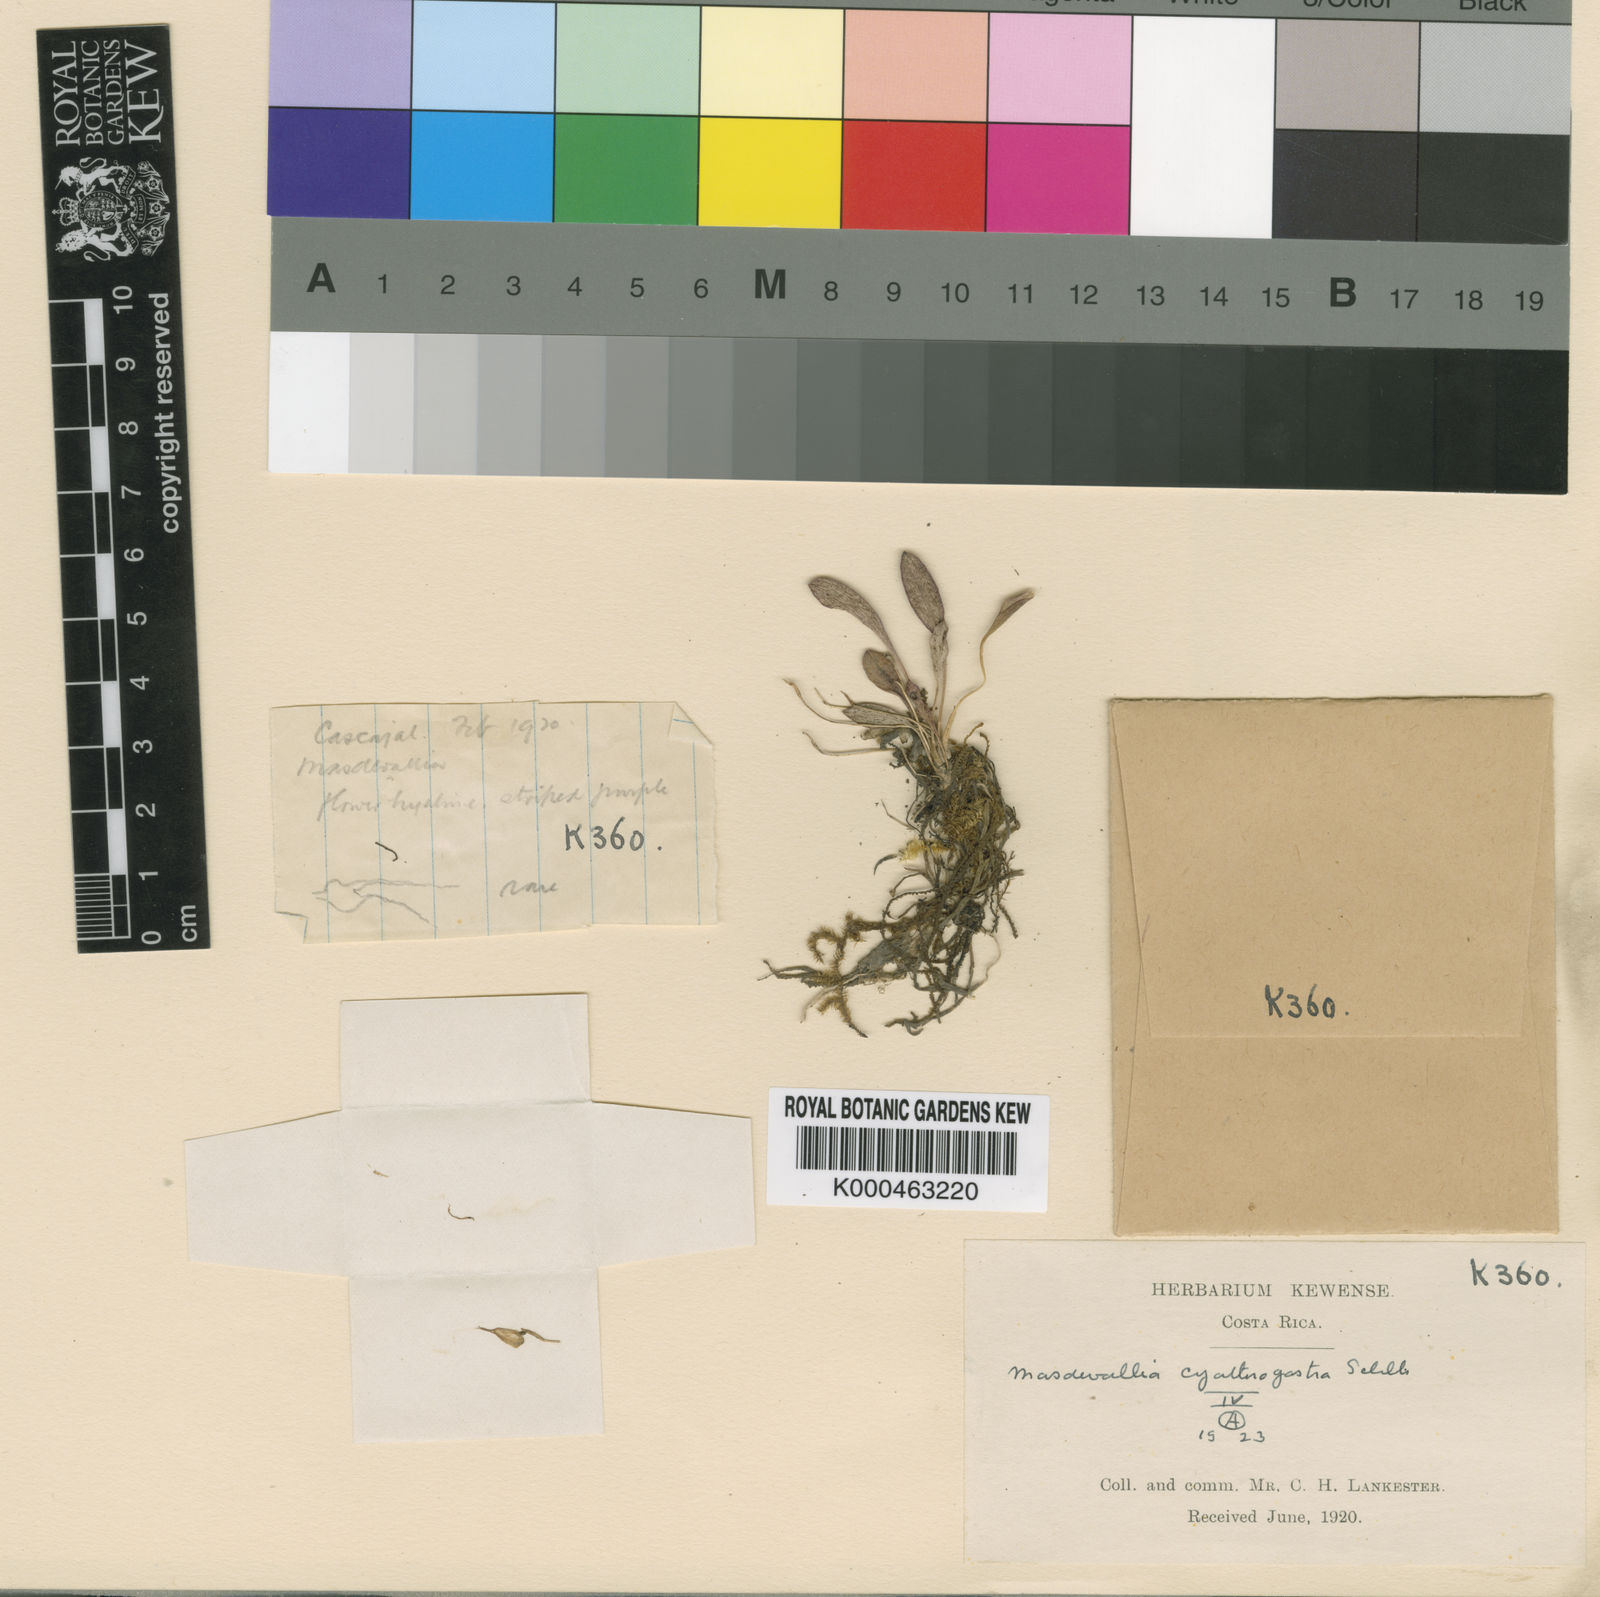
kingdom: Plantae
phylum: Tracheophyta
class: Liliopsida
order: Asparagales
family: Orchidaceae
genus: Masdevallia
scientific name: Masdevallia nidifica
